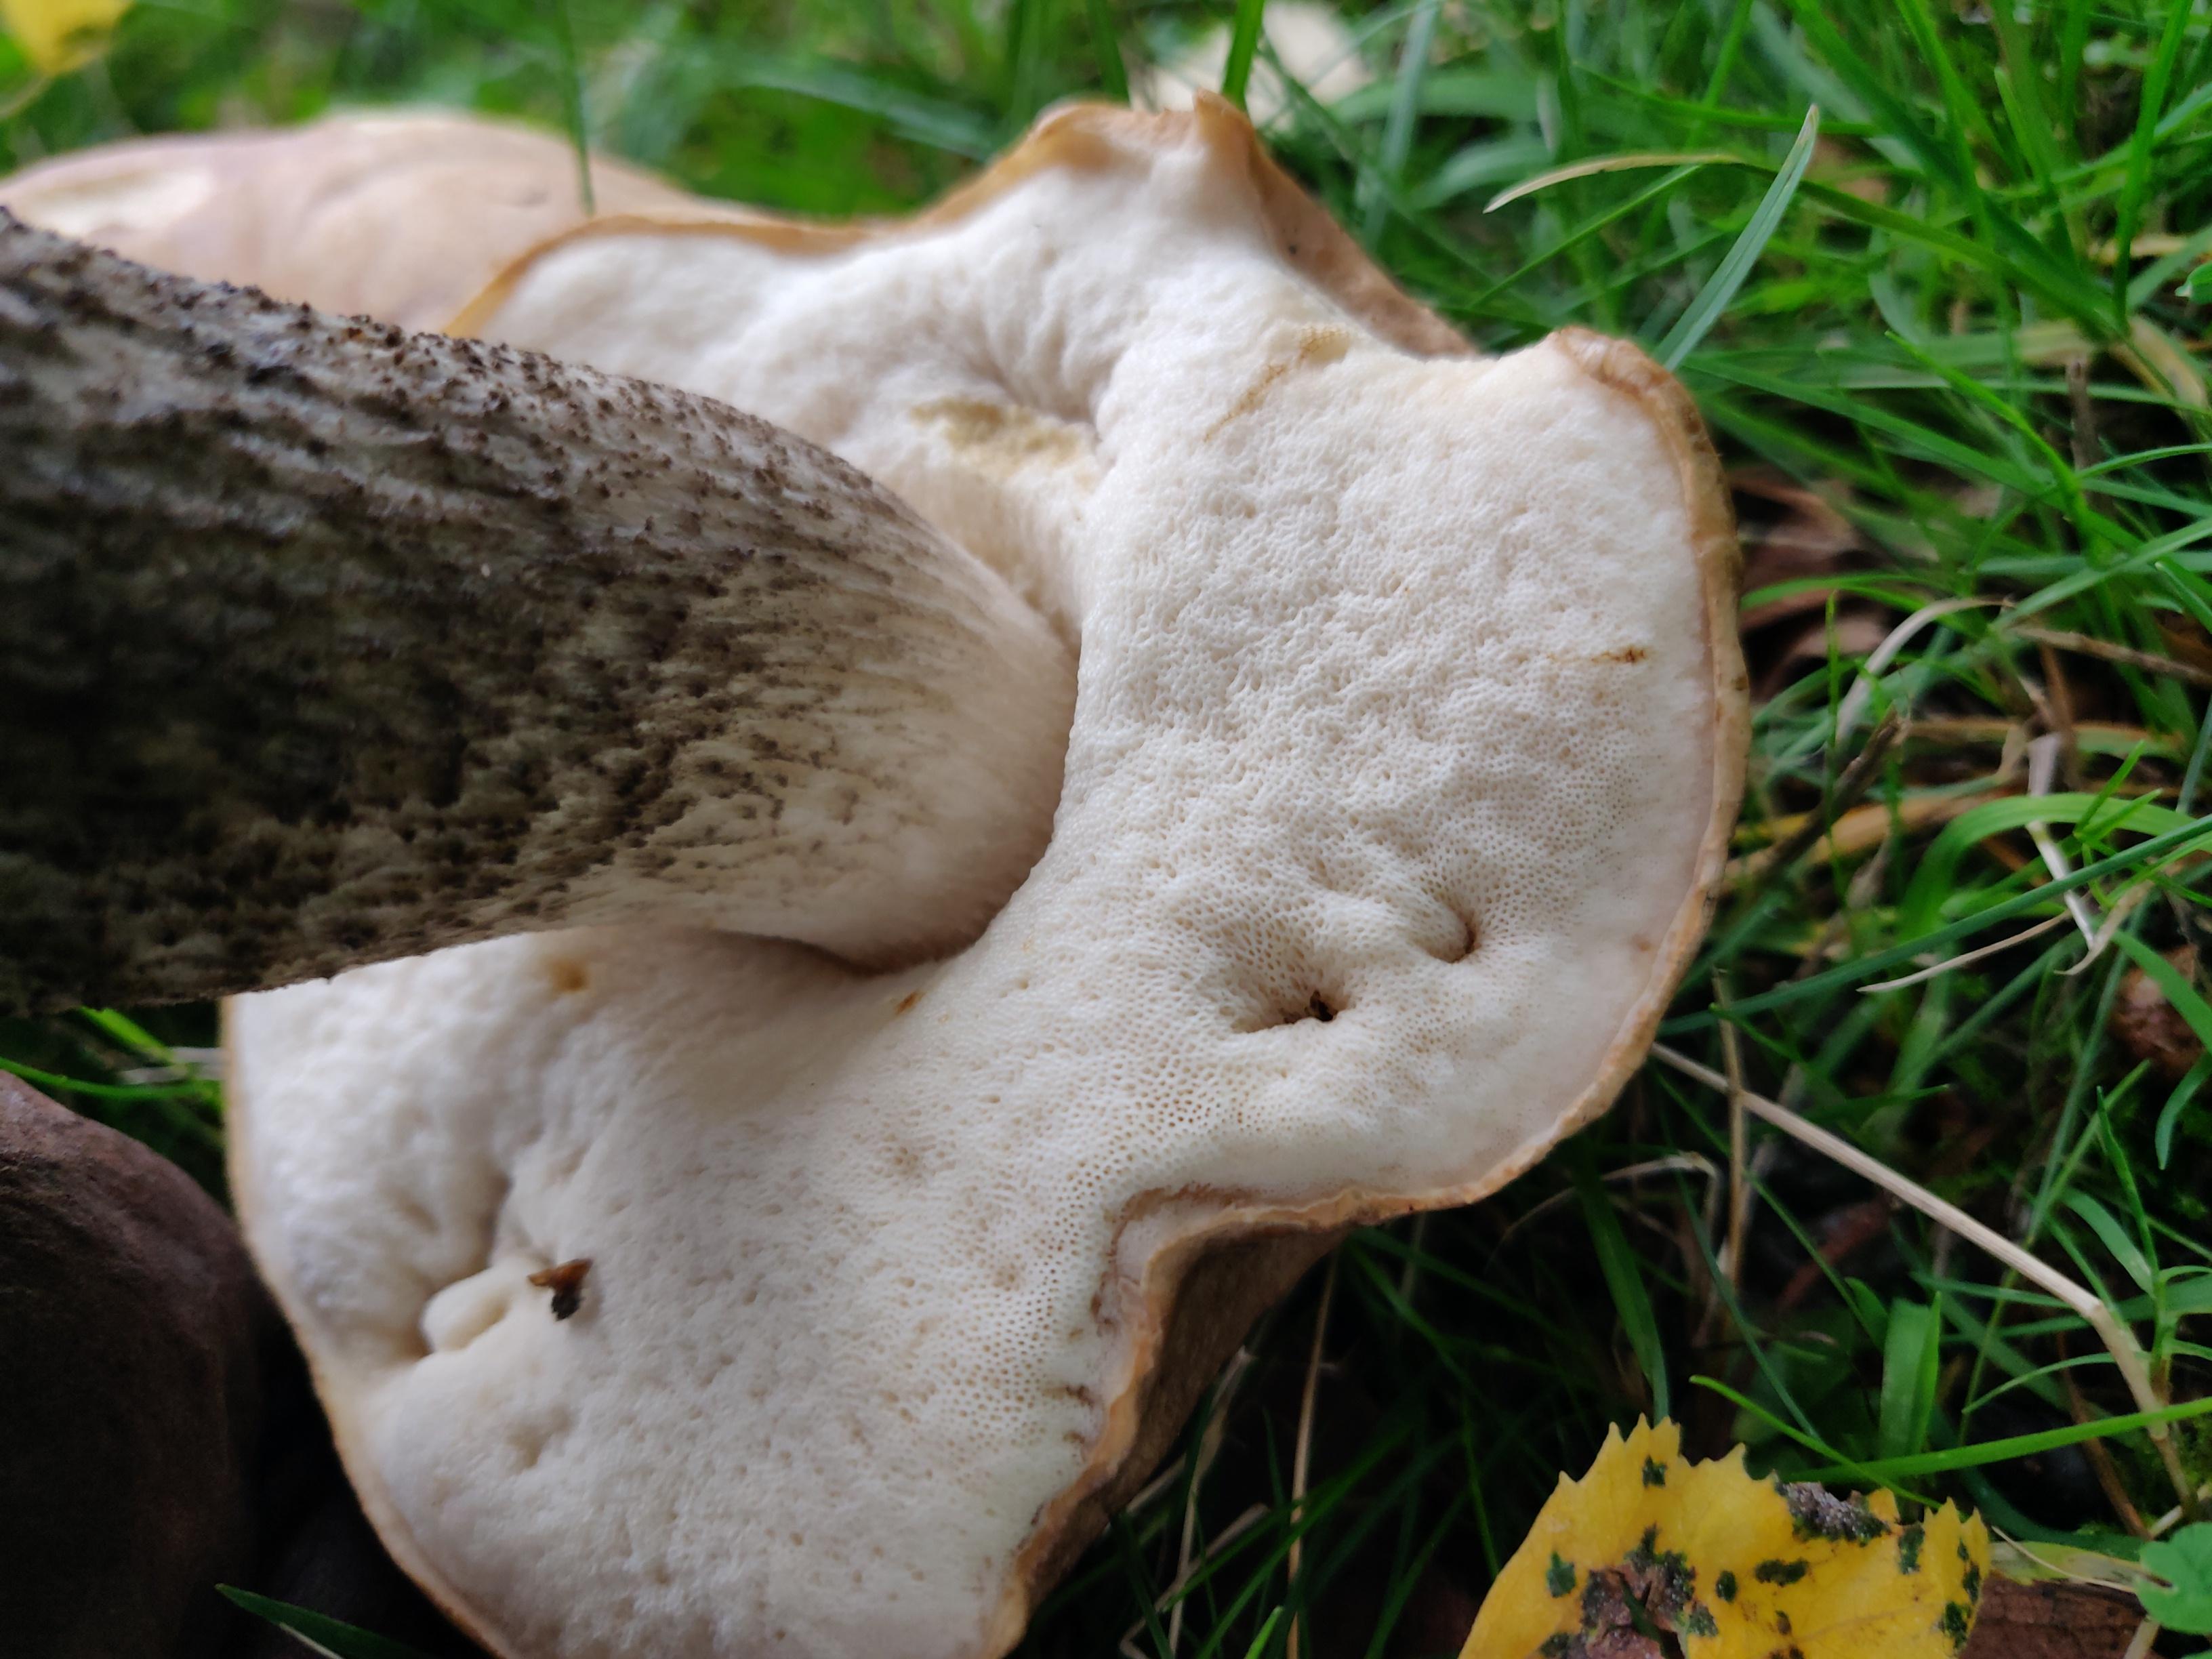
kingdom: Fungi
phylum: Basidiomycota
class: Agaricomycetes
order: Boletales
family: Boletaceae
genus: Leccinum
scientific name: Leccinum scabrum
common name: brun skælrørhat
